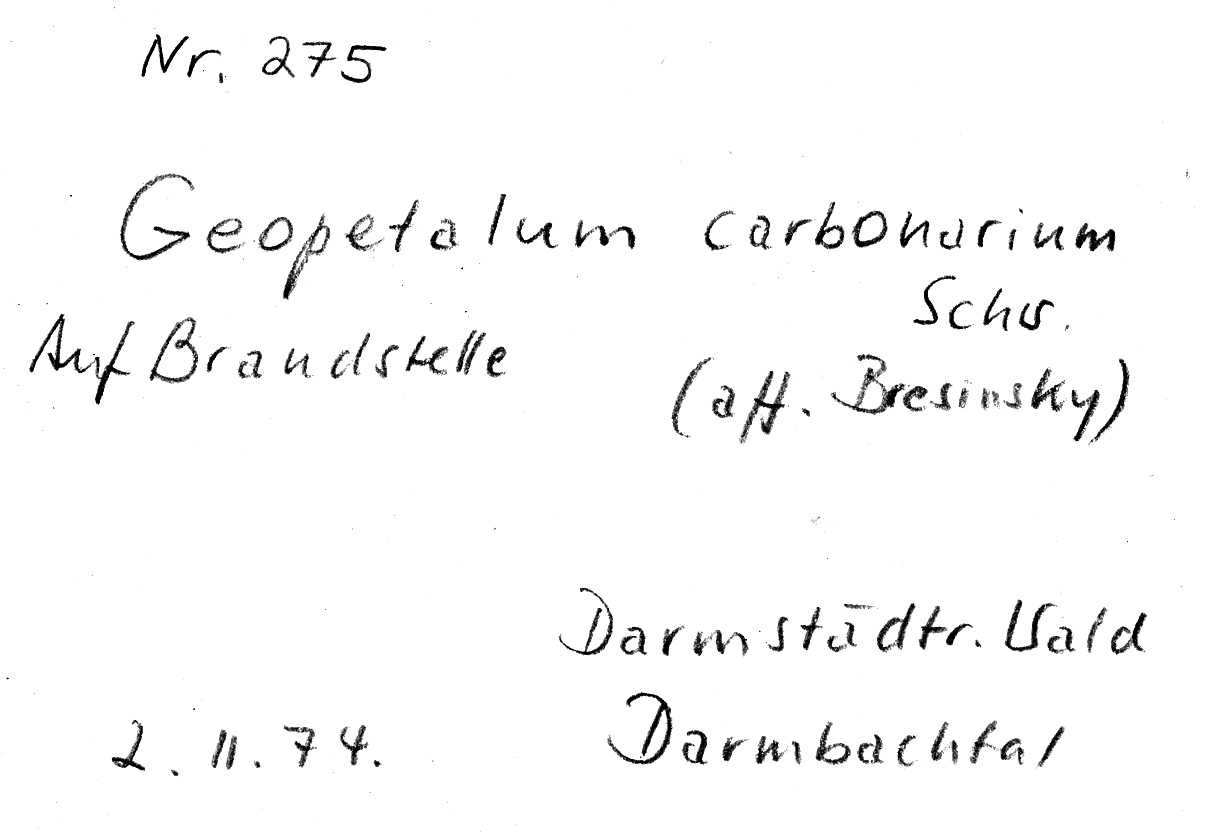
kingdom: Fungi
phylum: Basidiomycota
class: Agaricomycetes
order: Polyporales
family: Polyporaceae
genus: Faerberia
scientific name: Faerberia carbonaria
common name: Firesite funnel
